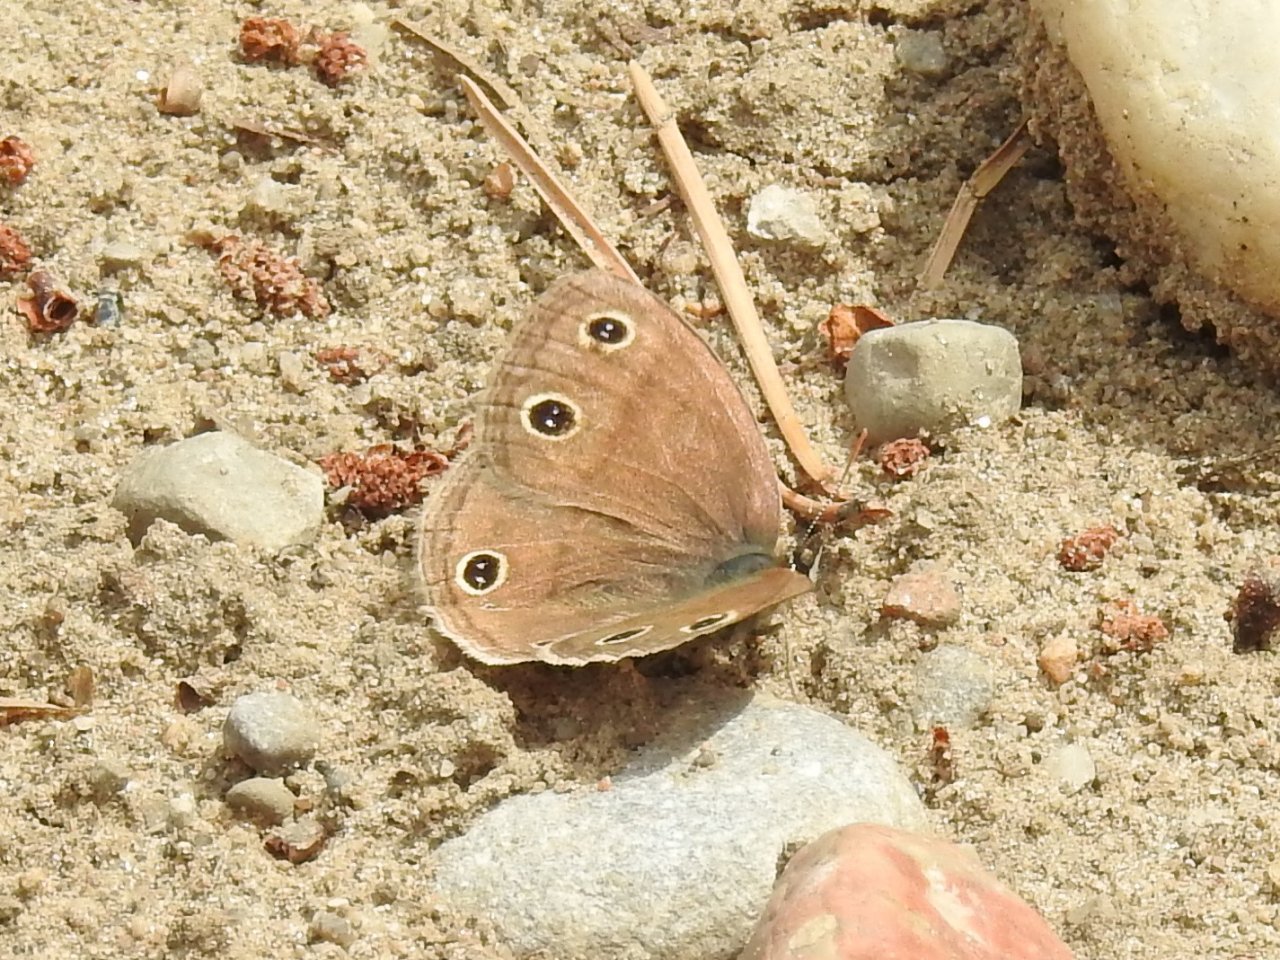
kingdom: Animalia
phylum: Arthropoda
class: Insecta
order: Lepidoptera
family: Nymphalidae
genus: Euptychia
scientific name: Euptychia cymela
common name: Little Wood Satyr
